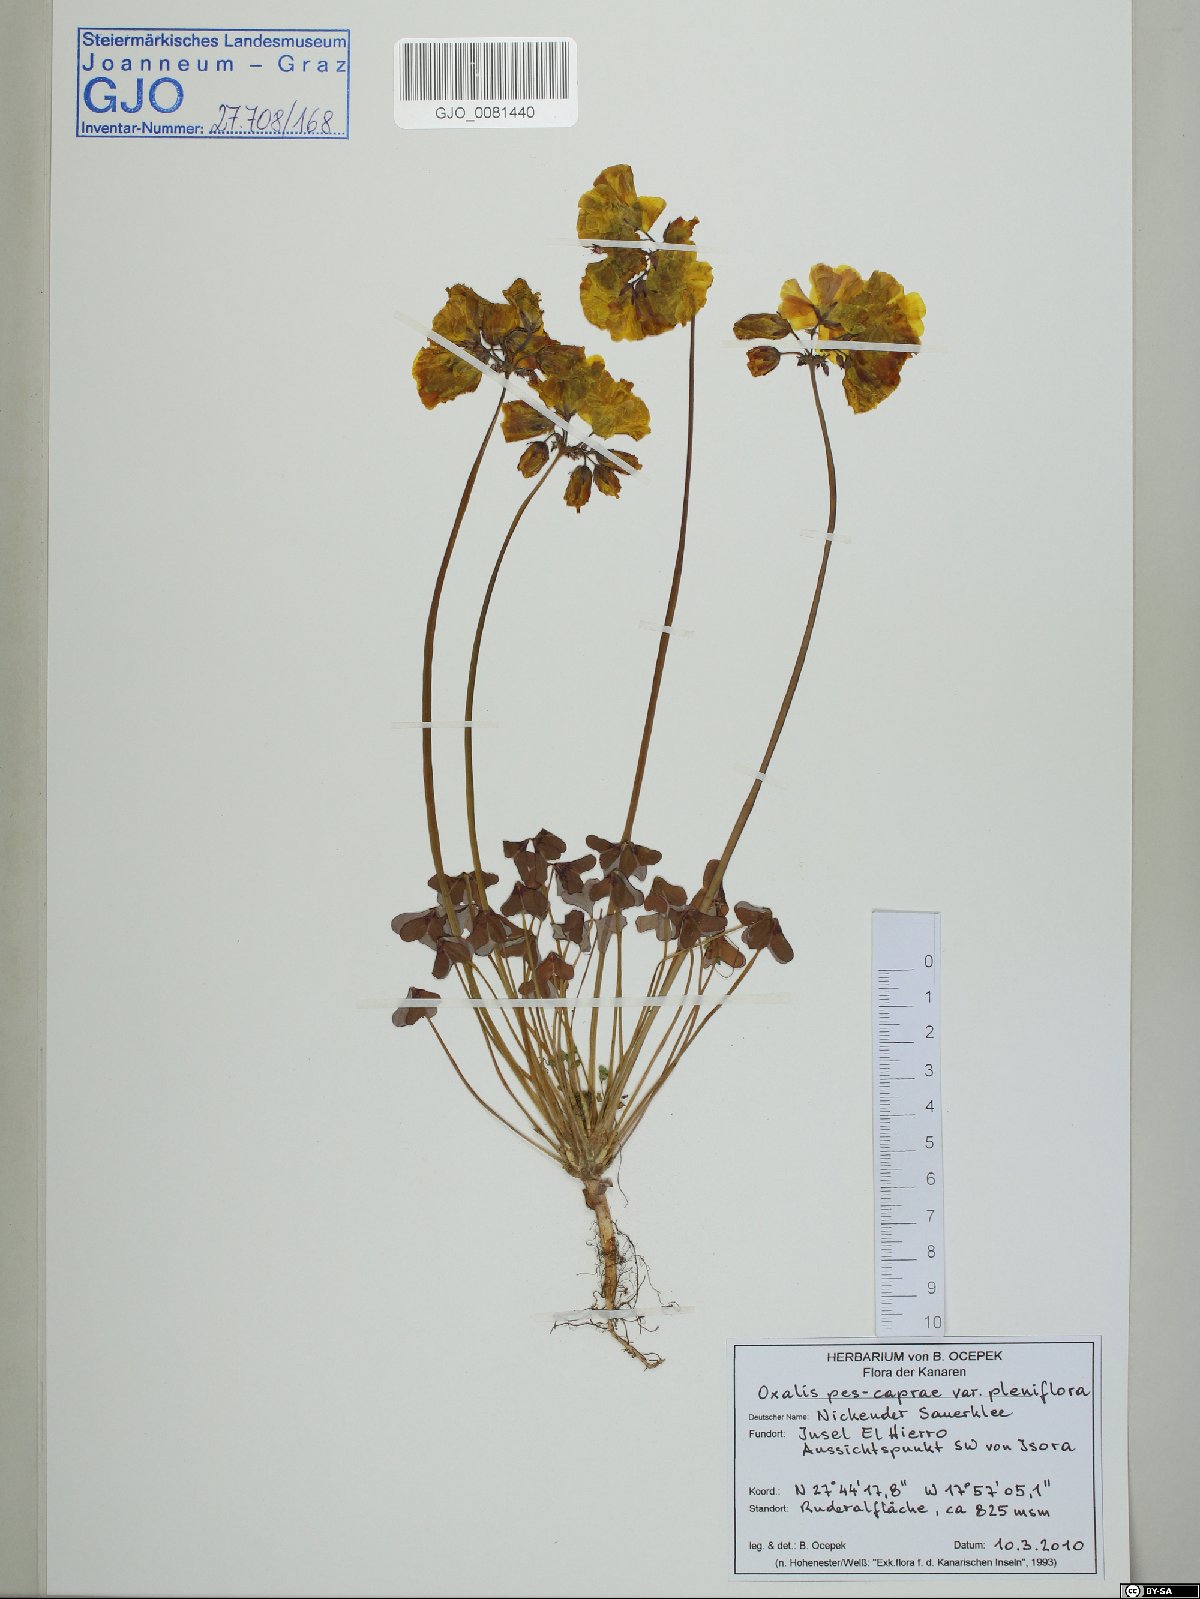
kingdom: Plantae
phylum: Tracheophyta
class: Magnoliopsida
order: Oxalidales
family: Oxalidaceae
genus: Oxalis
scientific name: Oxalis pes-caprae
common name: Bermuda-buttercup
